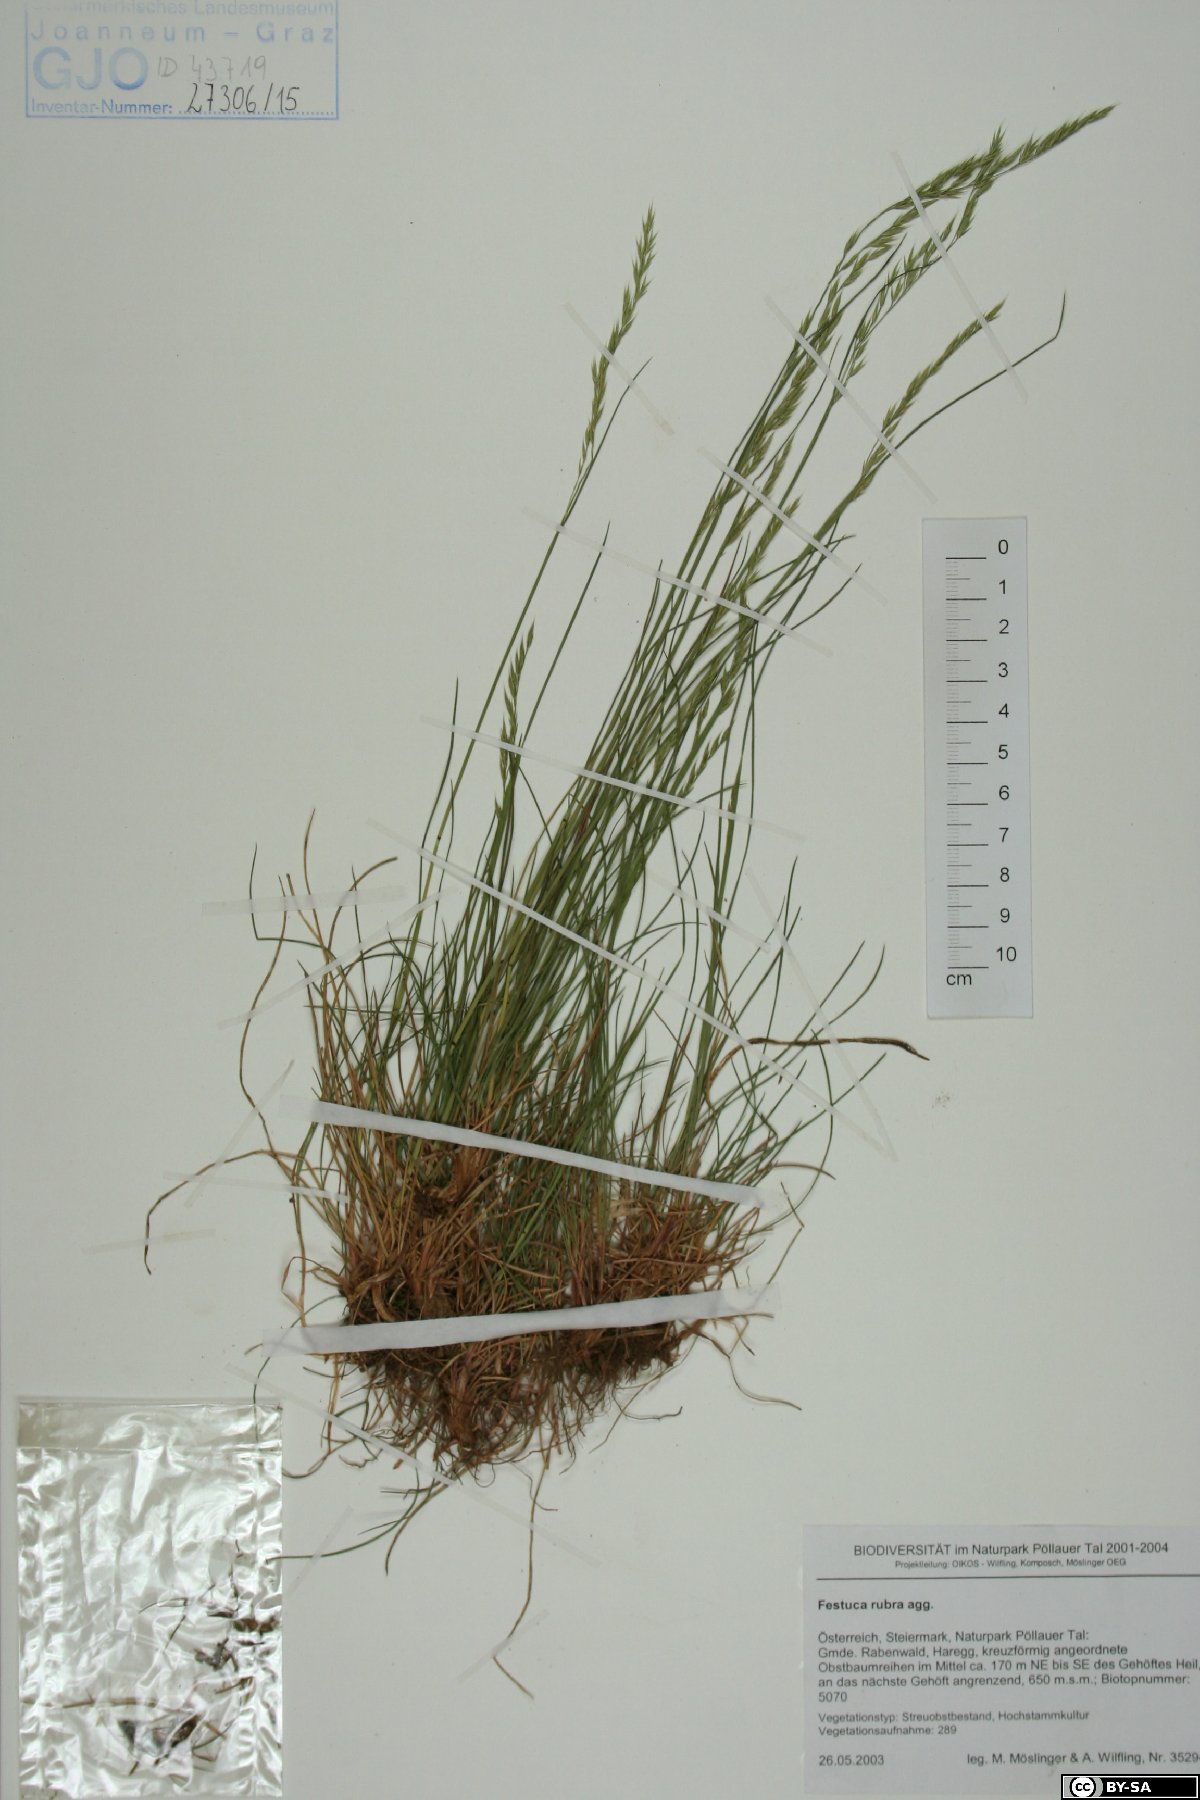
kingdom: Plantae
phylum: Tracheophyta
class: Liliopsida
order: Poales
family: Poaceae
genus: Festuca
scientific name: Festuca nigrescens
